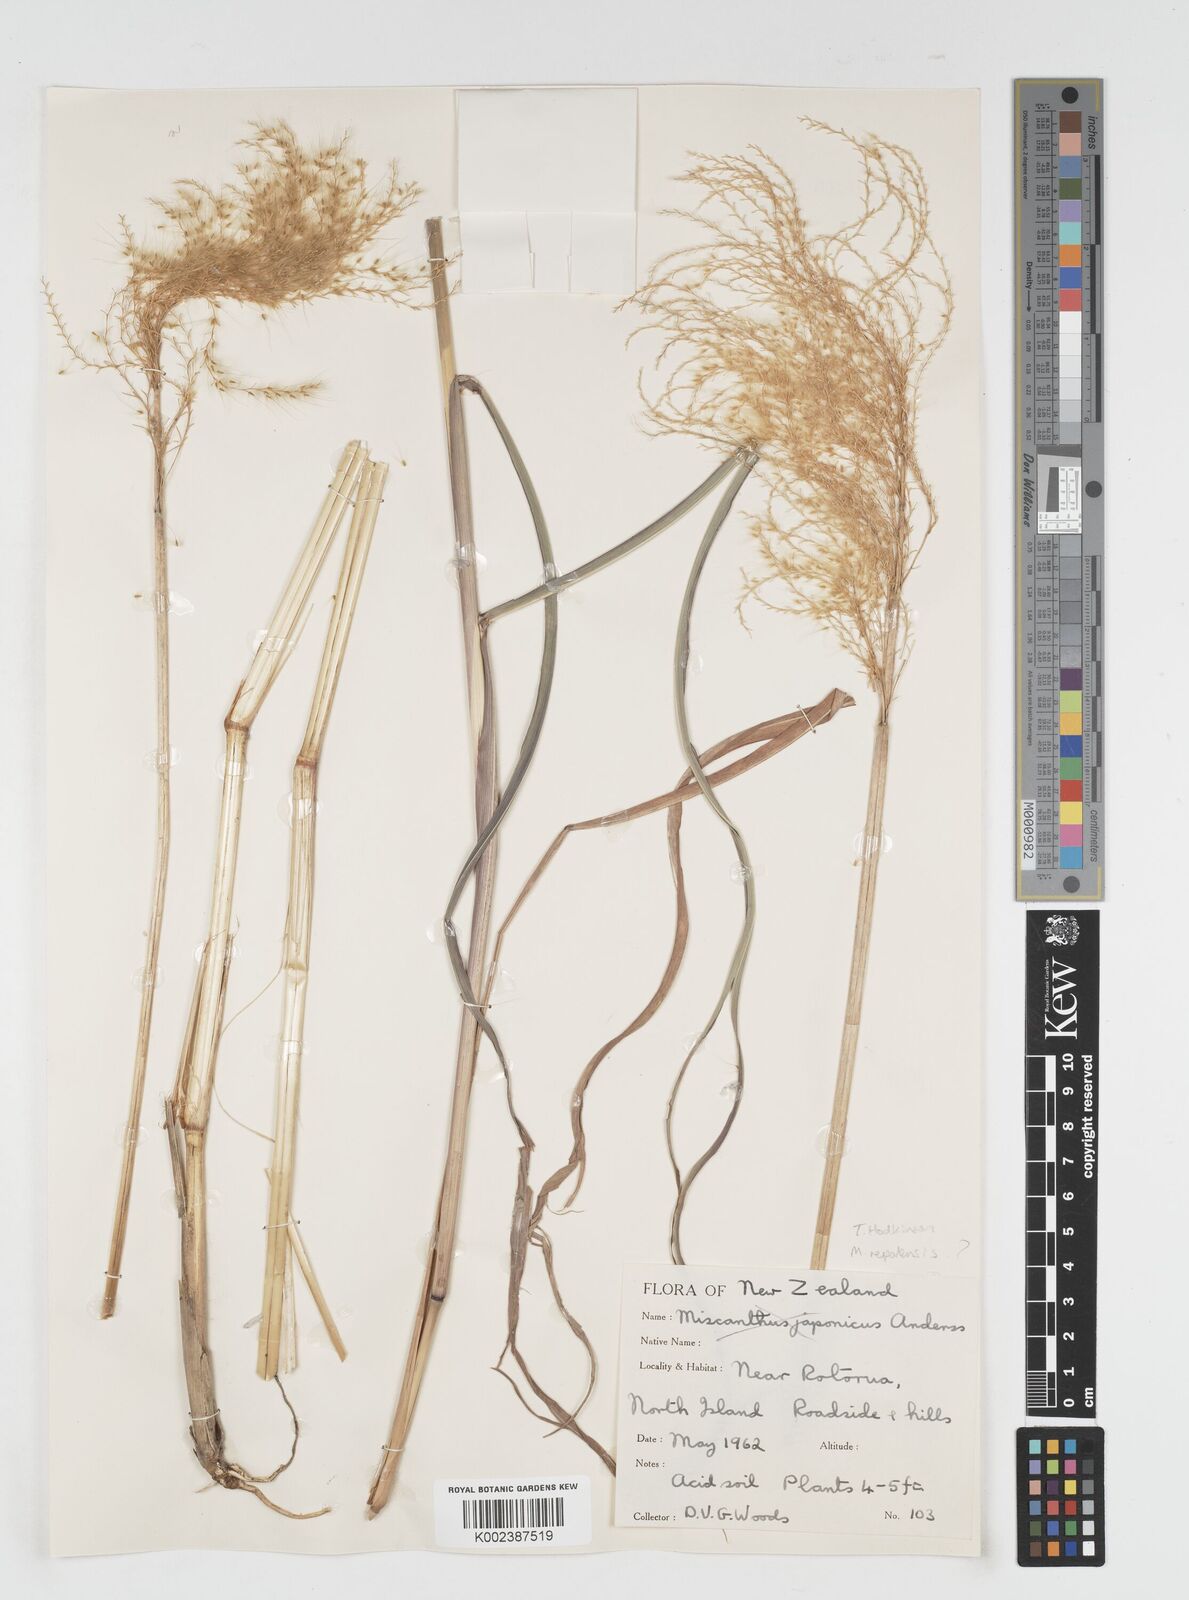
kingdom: Plantae
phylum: Tracheophyta
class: Liliopsida
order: Poales
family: Poaceae
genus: Miscanthus
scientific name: Miscanthus nepalensis
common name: Nepal silver grass
